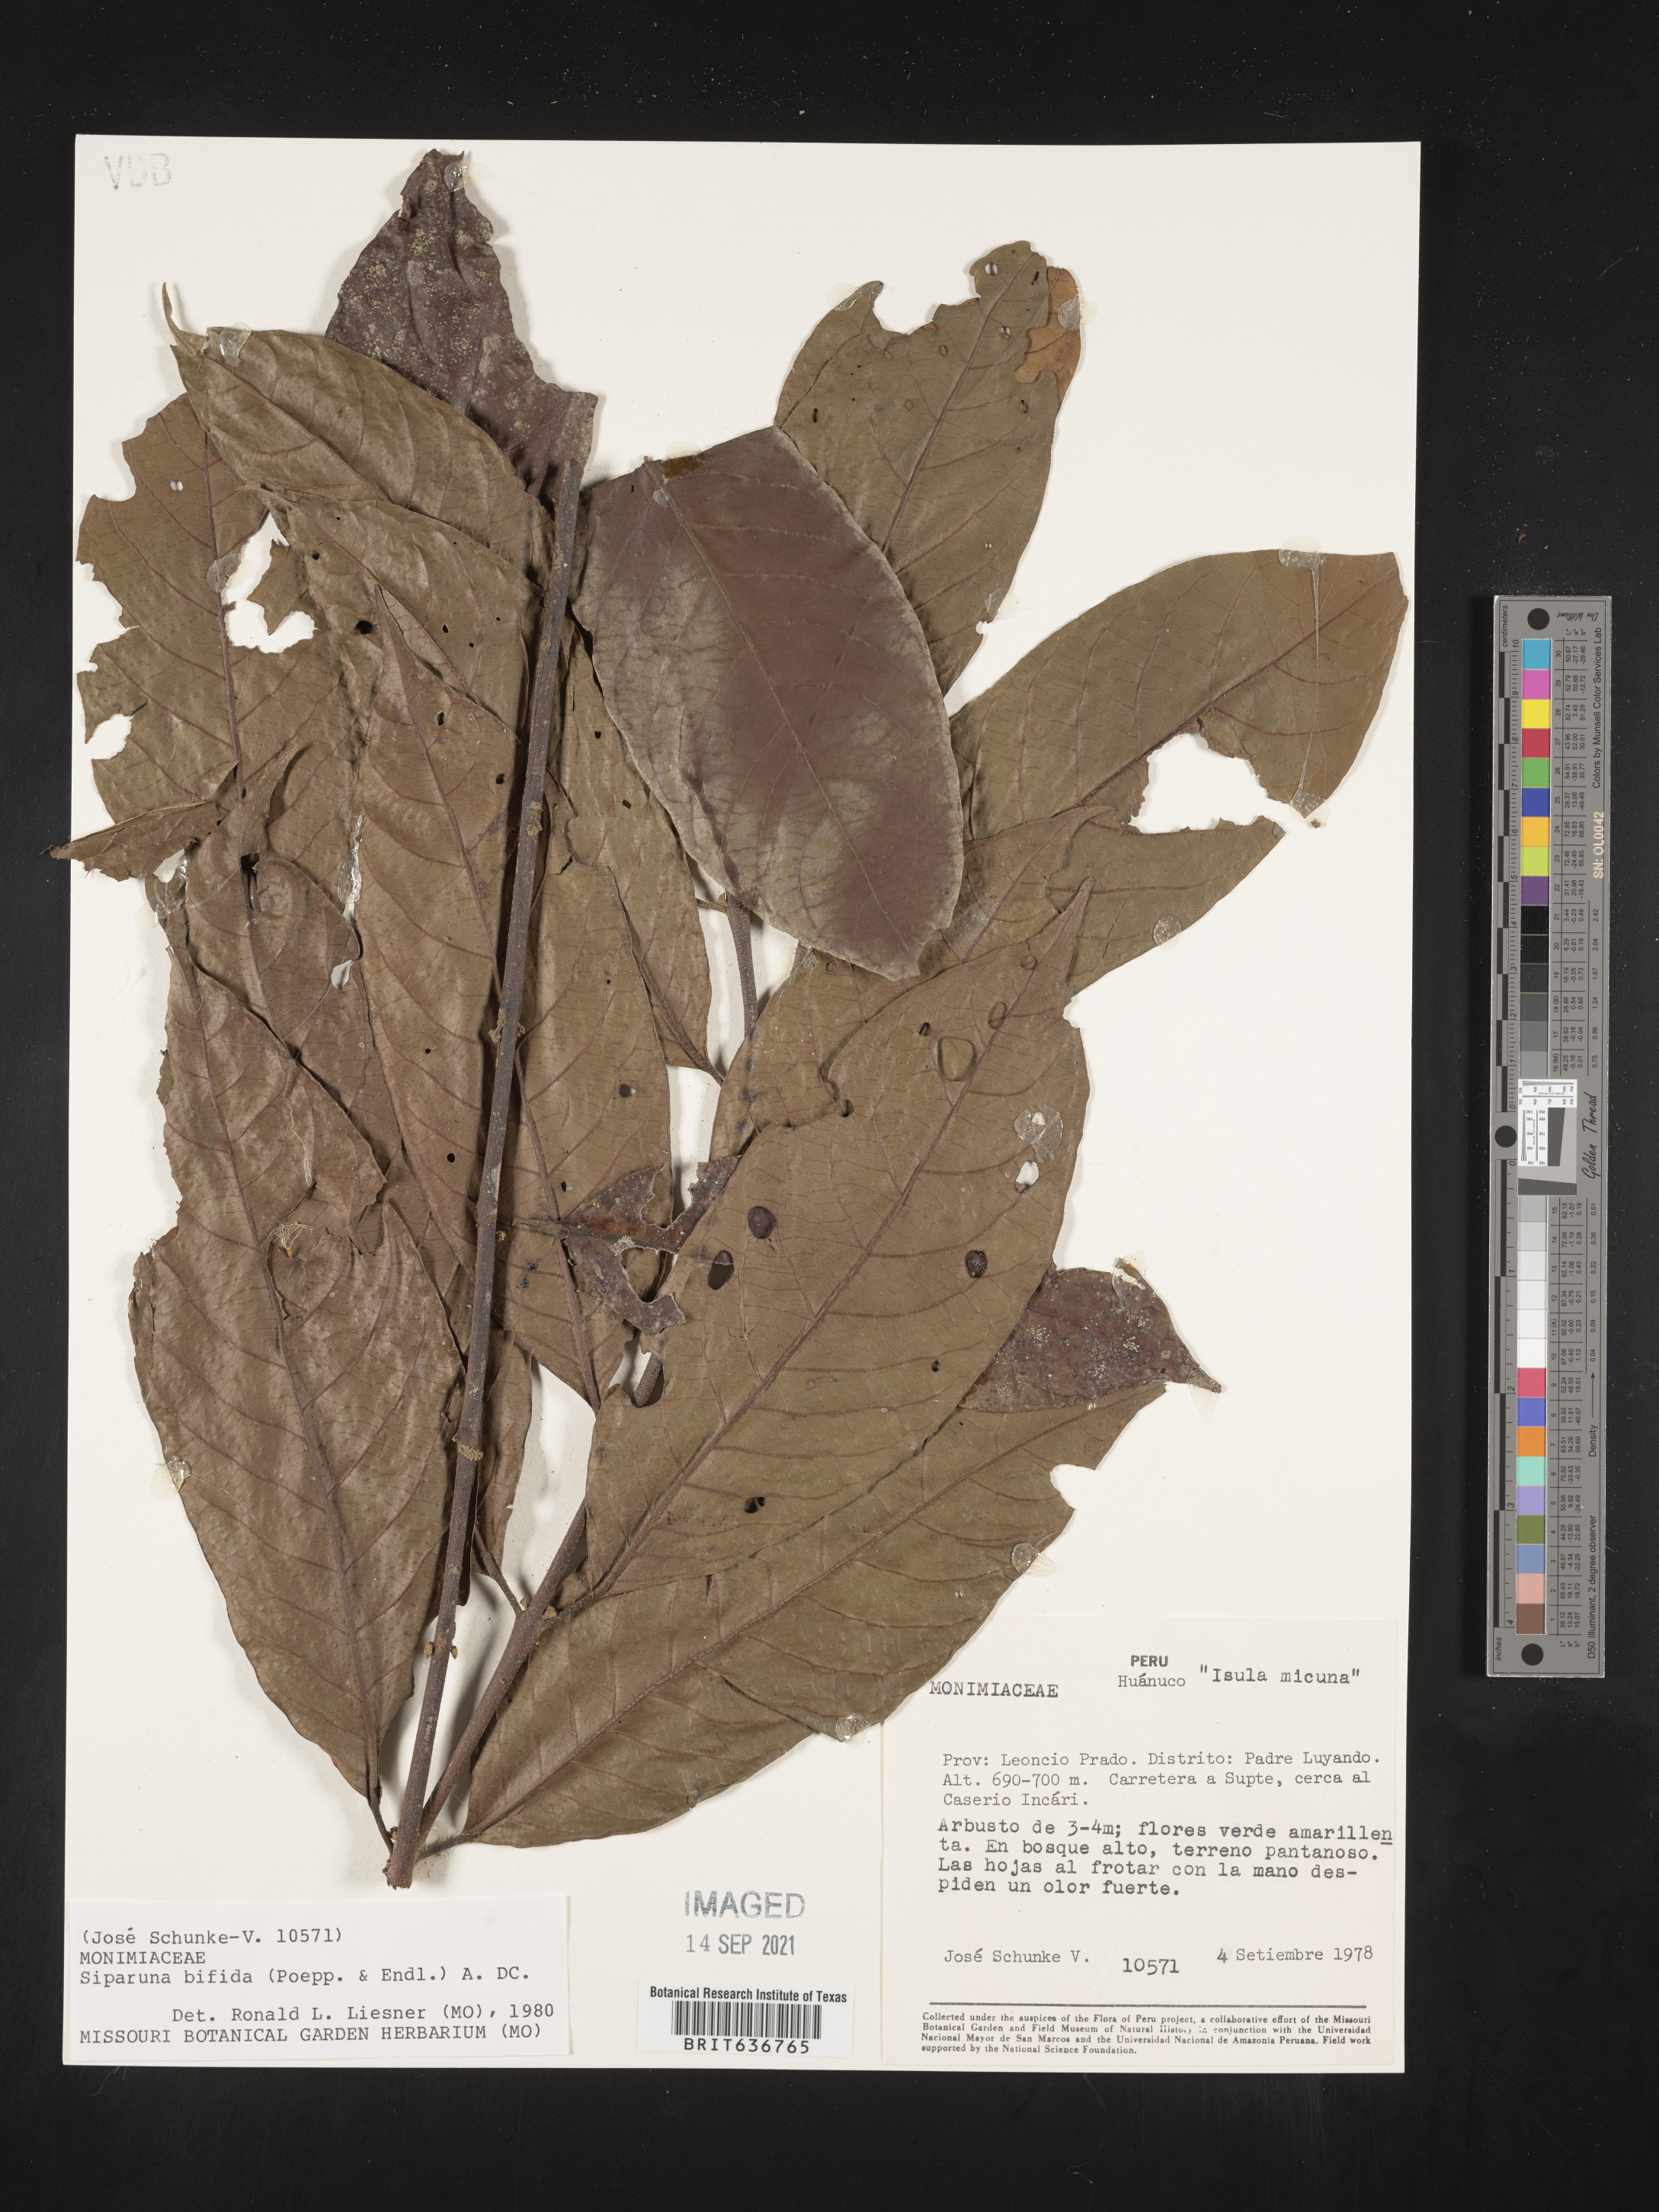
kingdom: Plantae
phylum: Tracheophyta
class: Magnoliopsida
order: Laurales
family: Siparunaceae
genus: Siparuna
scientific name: Siparuna
